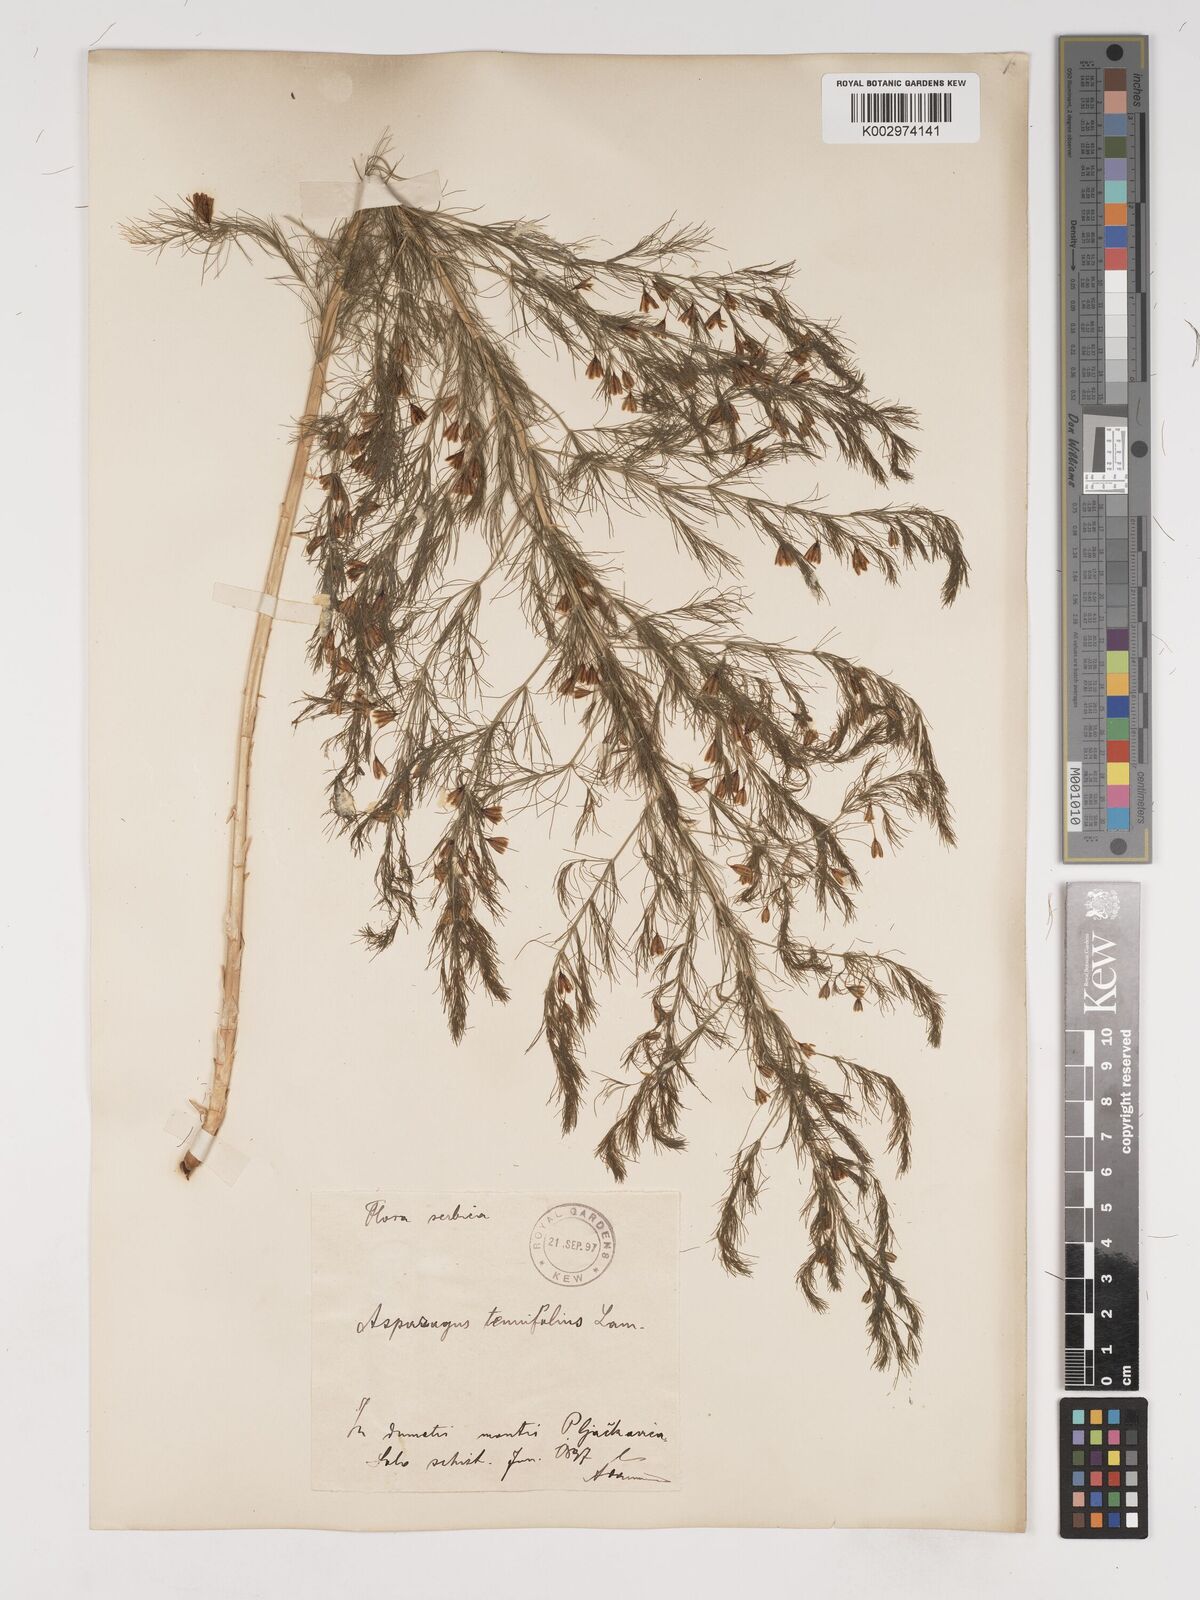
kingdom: Plantae
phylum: Tracheophyta
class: Liliopsida
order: Asparagales
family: Asparagaceae
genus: Asparagus
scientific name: Asparagus tenuifolius
